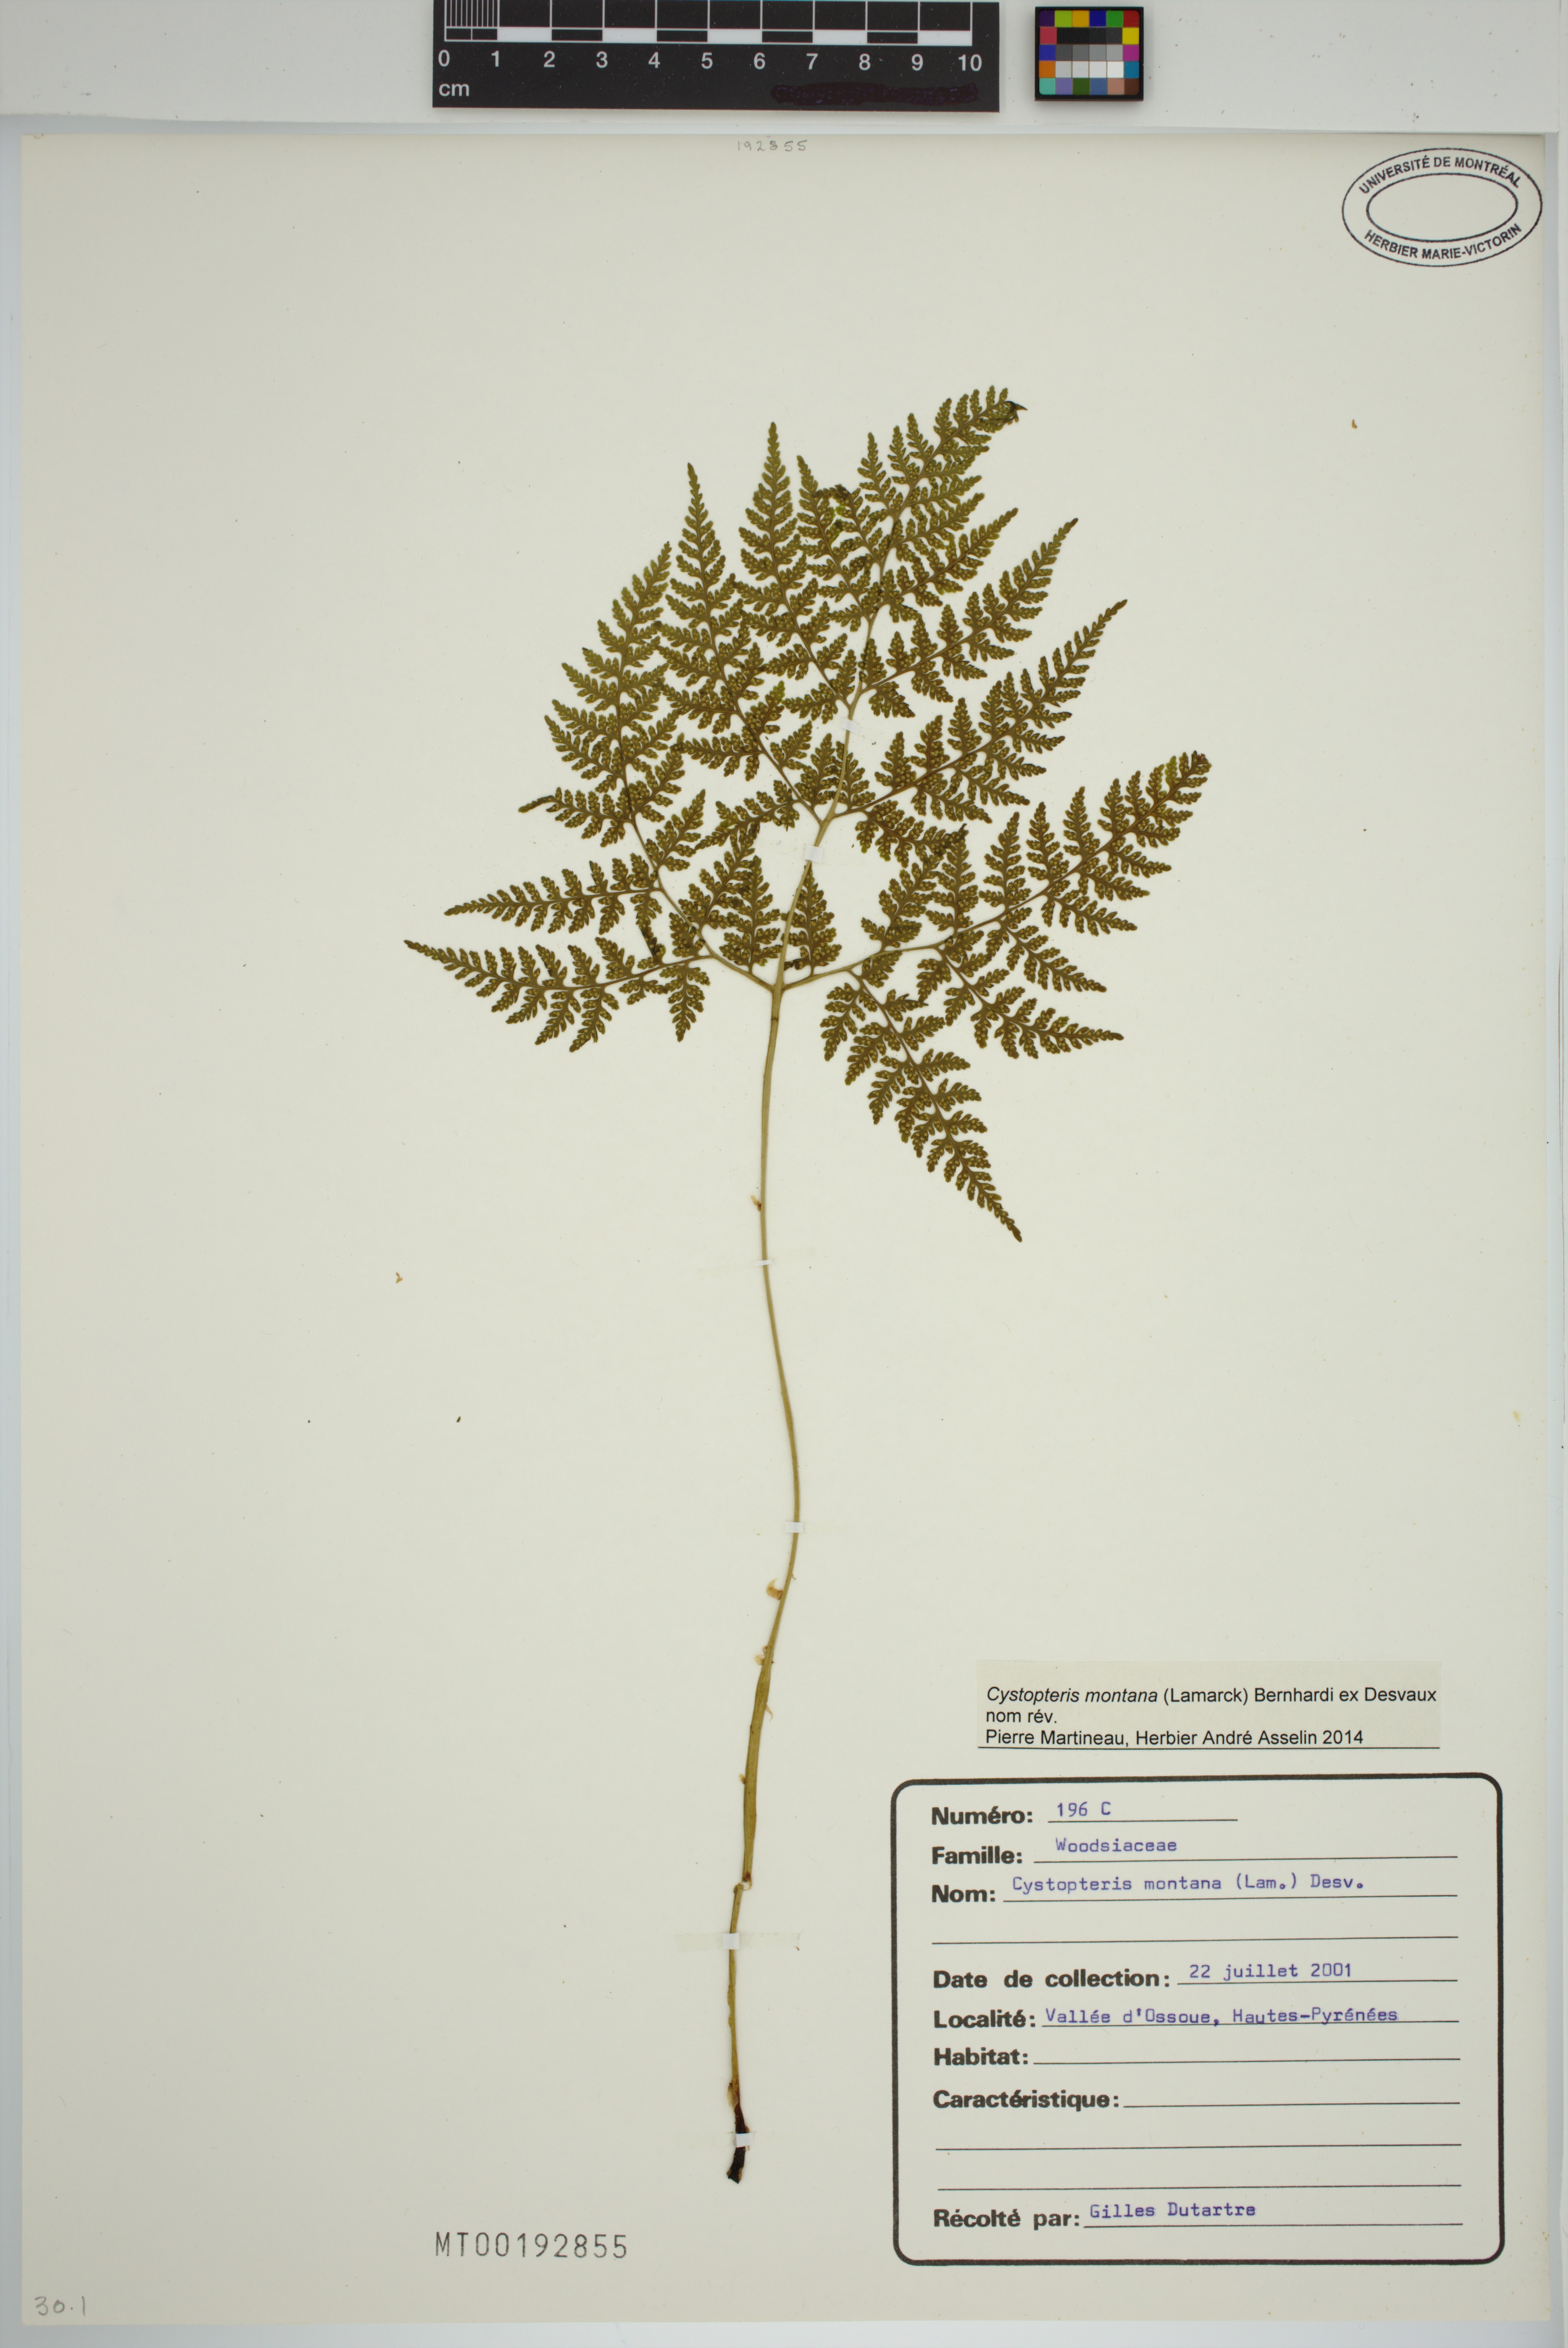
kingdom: Plantae
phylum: Tracheophyta
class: Polypodiopsida
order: Polypodiales
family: Cystopteridaceae
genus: Cystopteris
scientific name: Cystopteris montana
